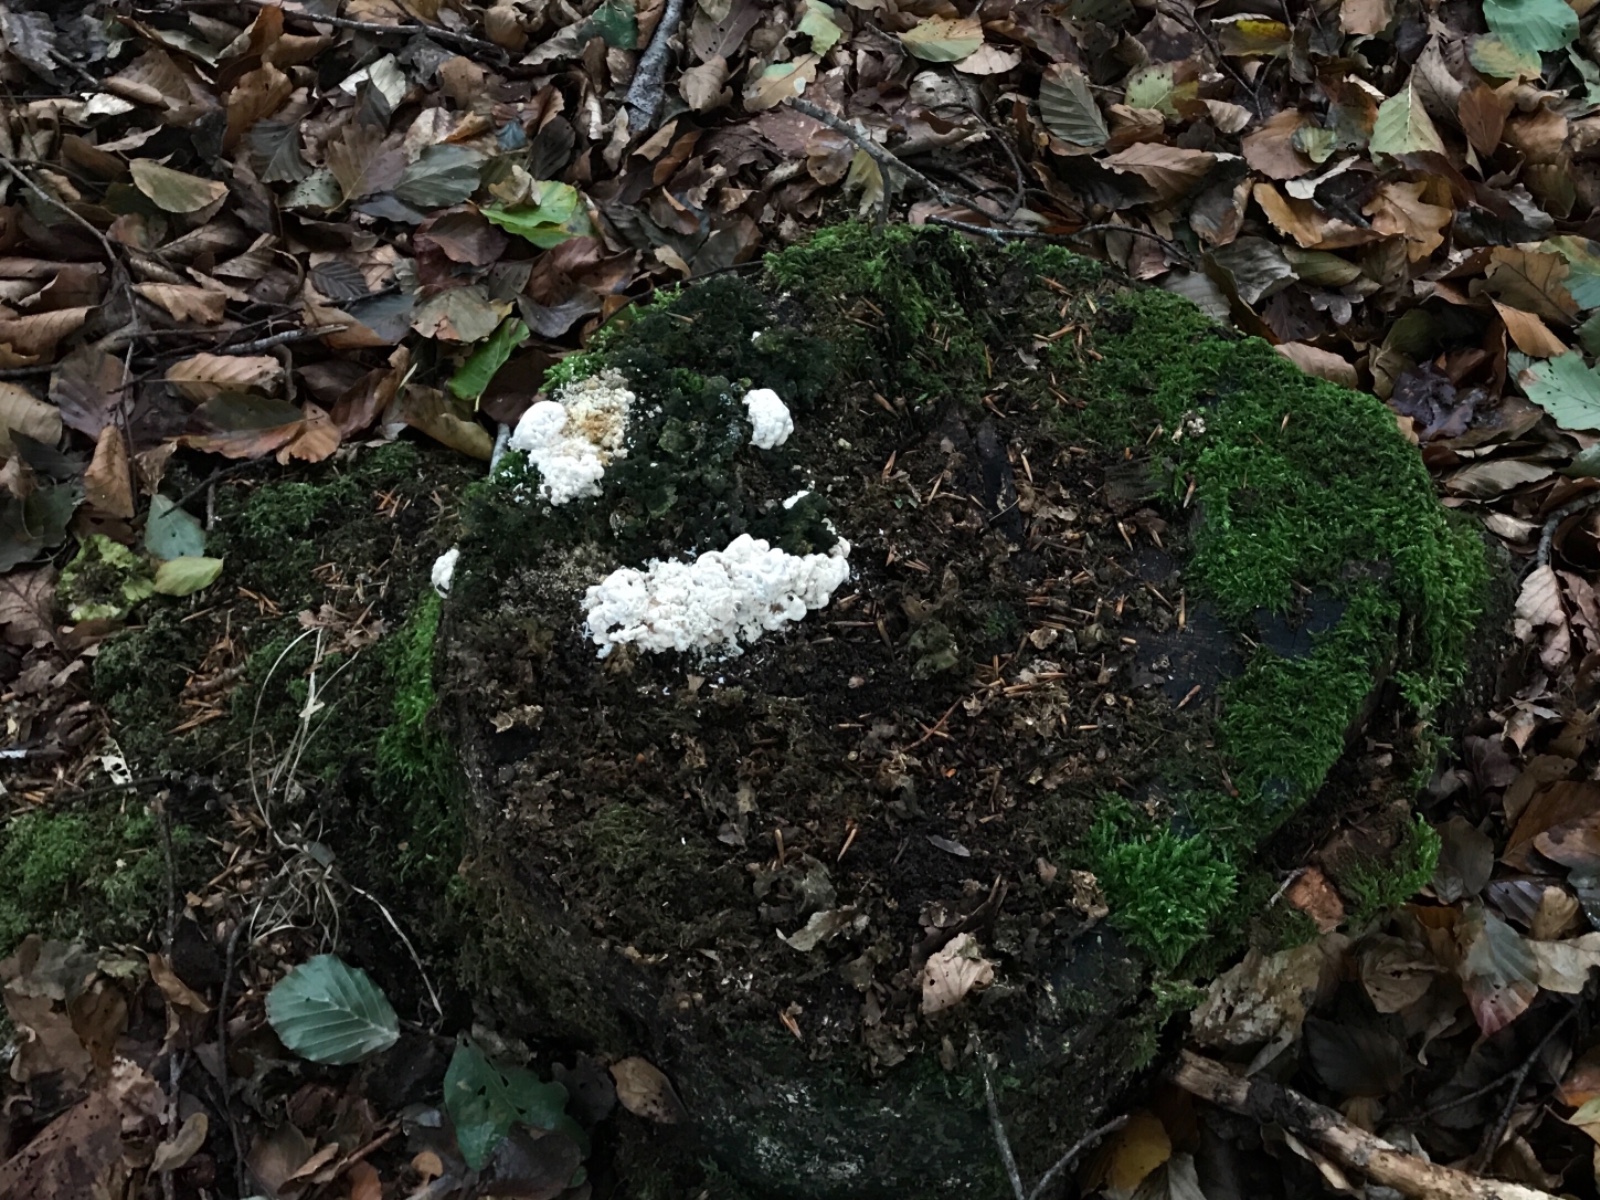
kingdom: Fungi
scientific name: Fungi
